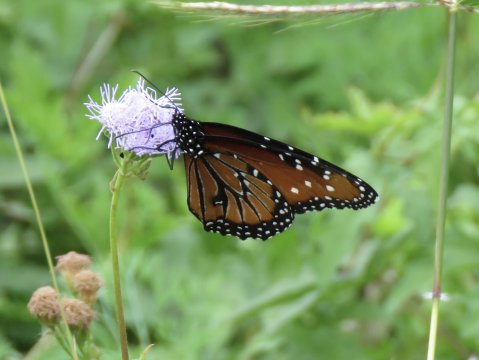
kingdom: Animalia
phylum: Arthropoda
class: Insecta
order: Lepidoptera
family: Nymphalidae
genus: Danaus
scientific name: Danaus gilippus
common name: Queen
